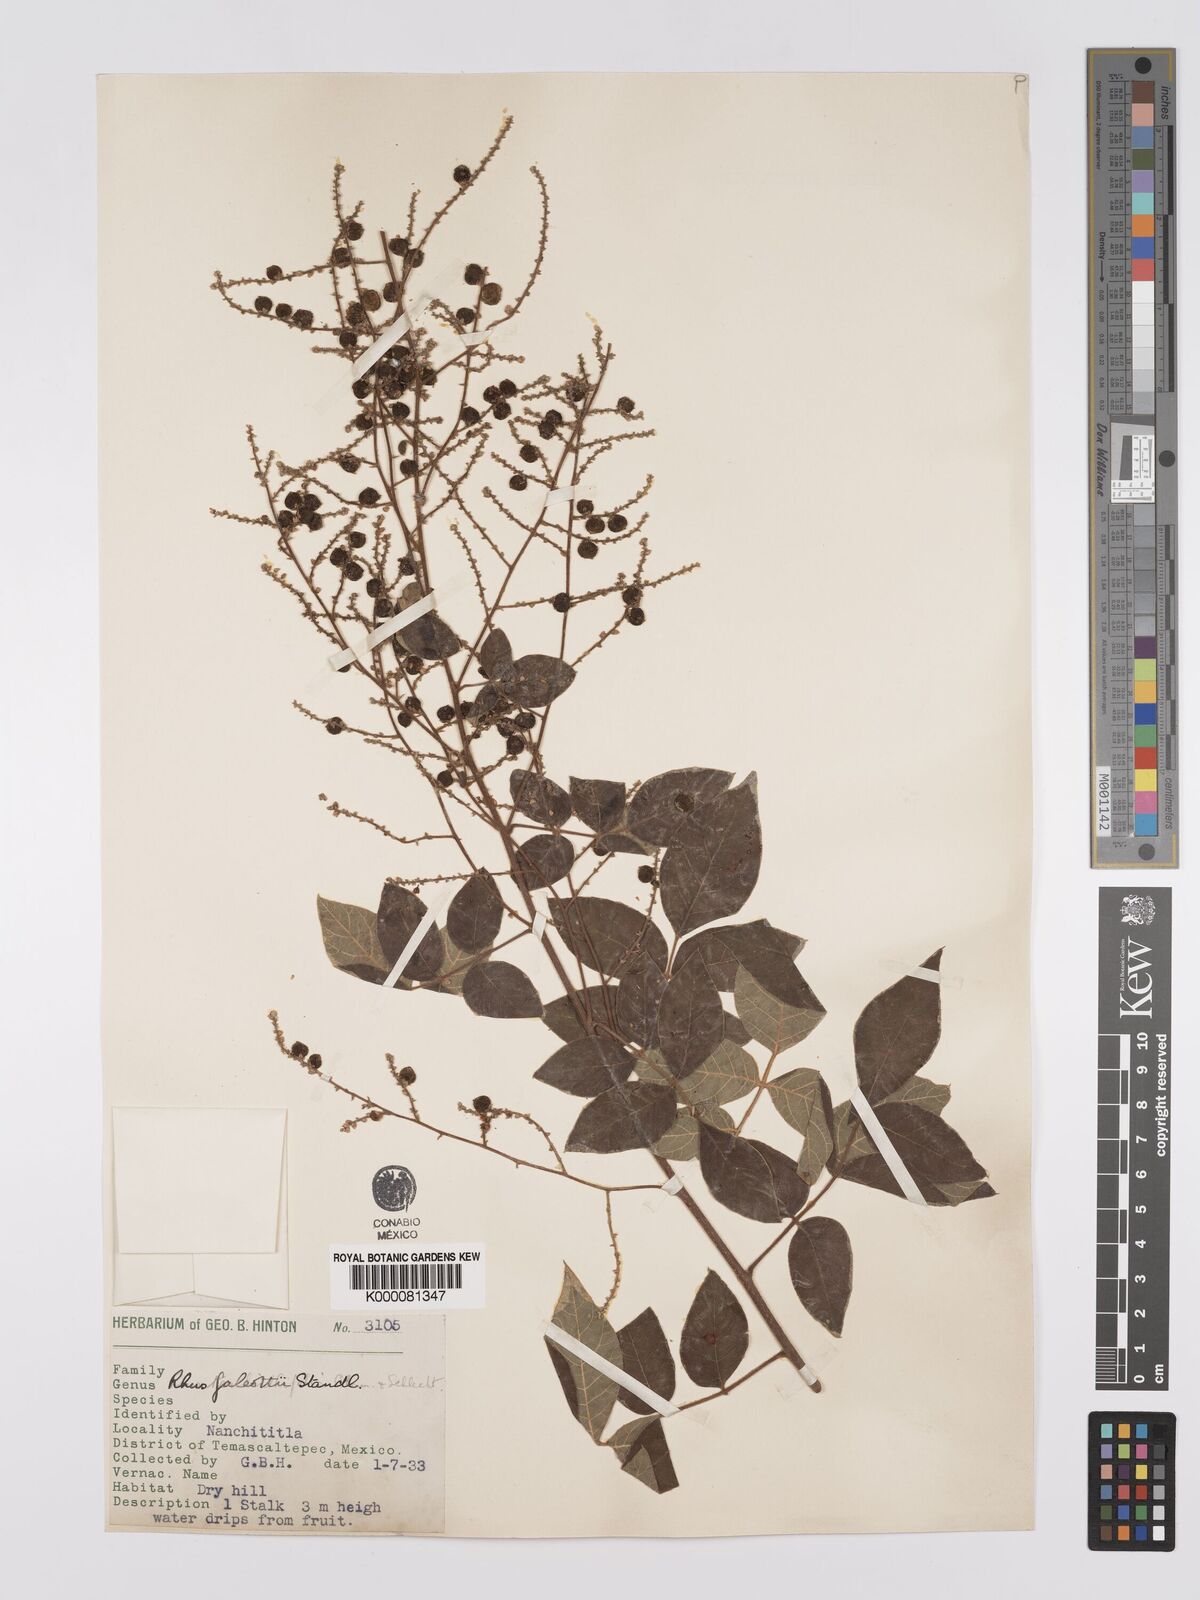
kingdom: Plantae
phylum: Tracheophyta
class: Magnoliopsida
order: Sapindales
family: Anacardiaceae
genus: Rhus
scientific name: Rhus galeottii
